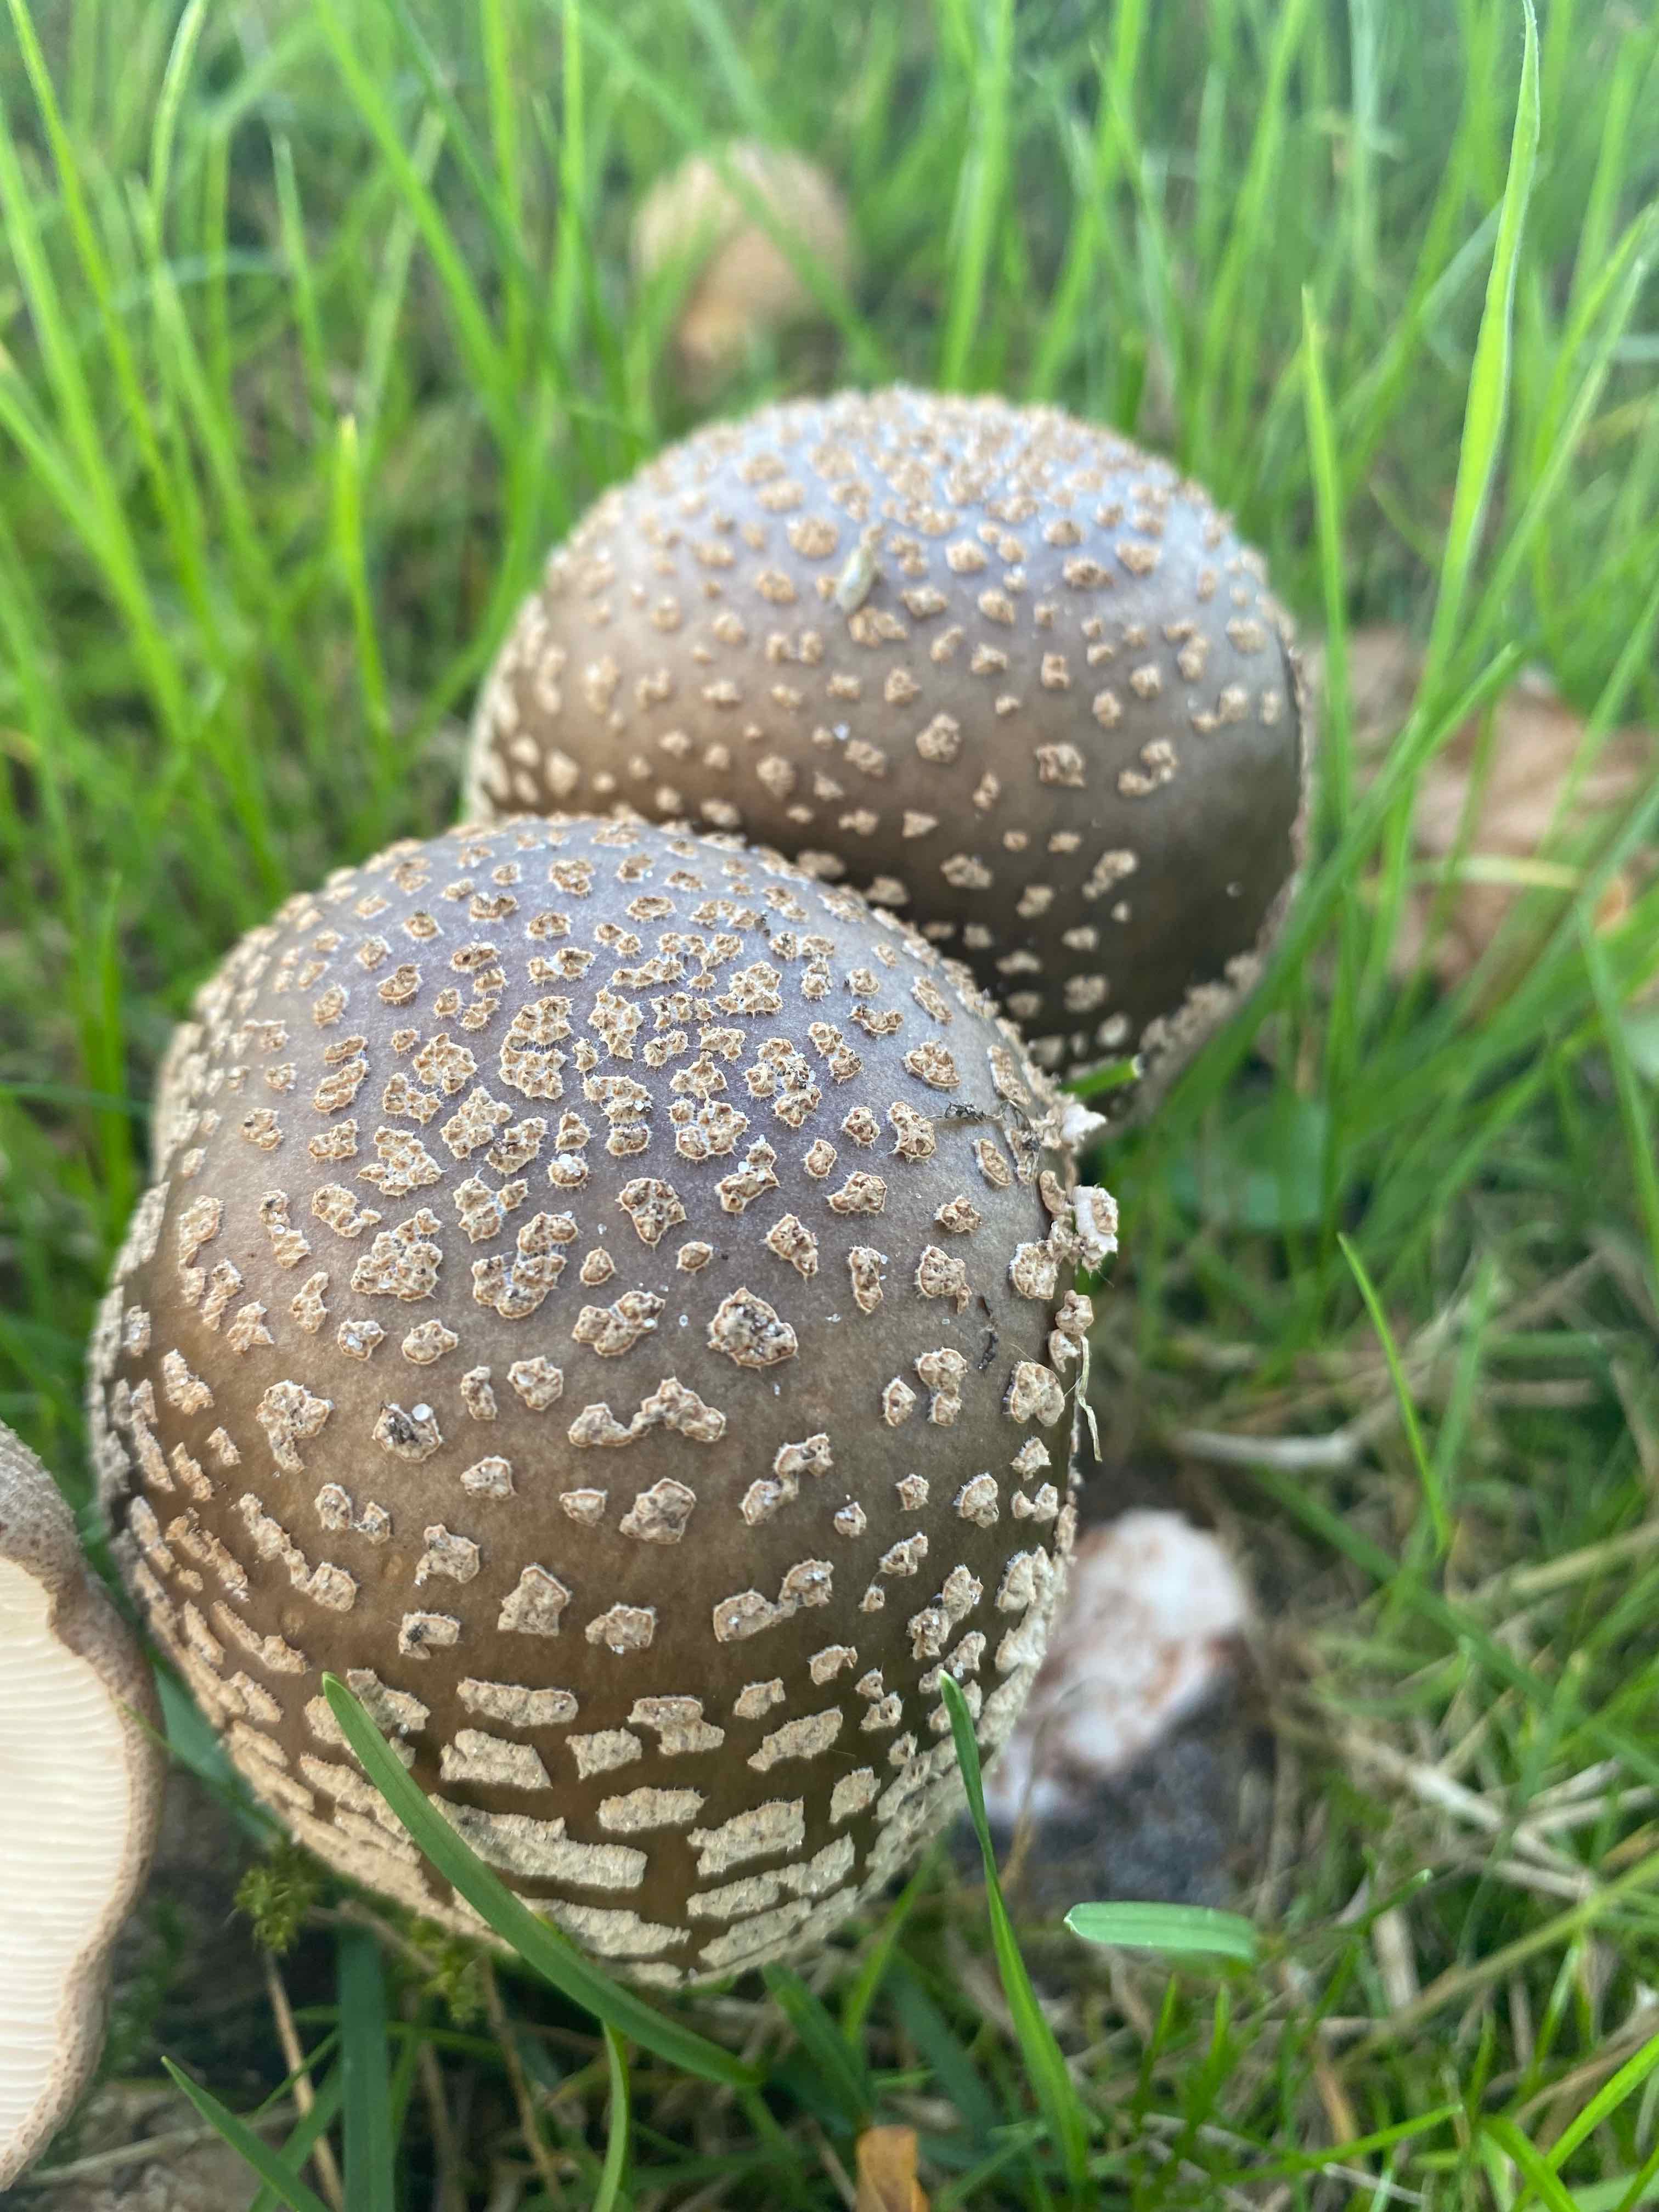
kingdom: Fungi
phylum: Basidiomycota
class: Agaricomycetes
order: Agaricales
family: Amanitaceae
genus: Amanita
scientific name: Amanita rubescens
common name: rødmende fluesvamp
